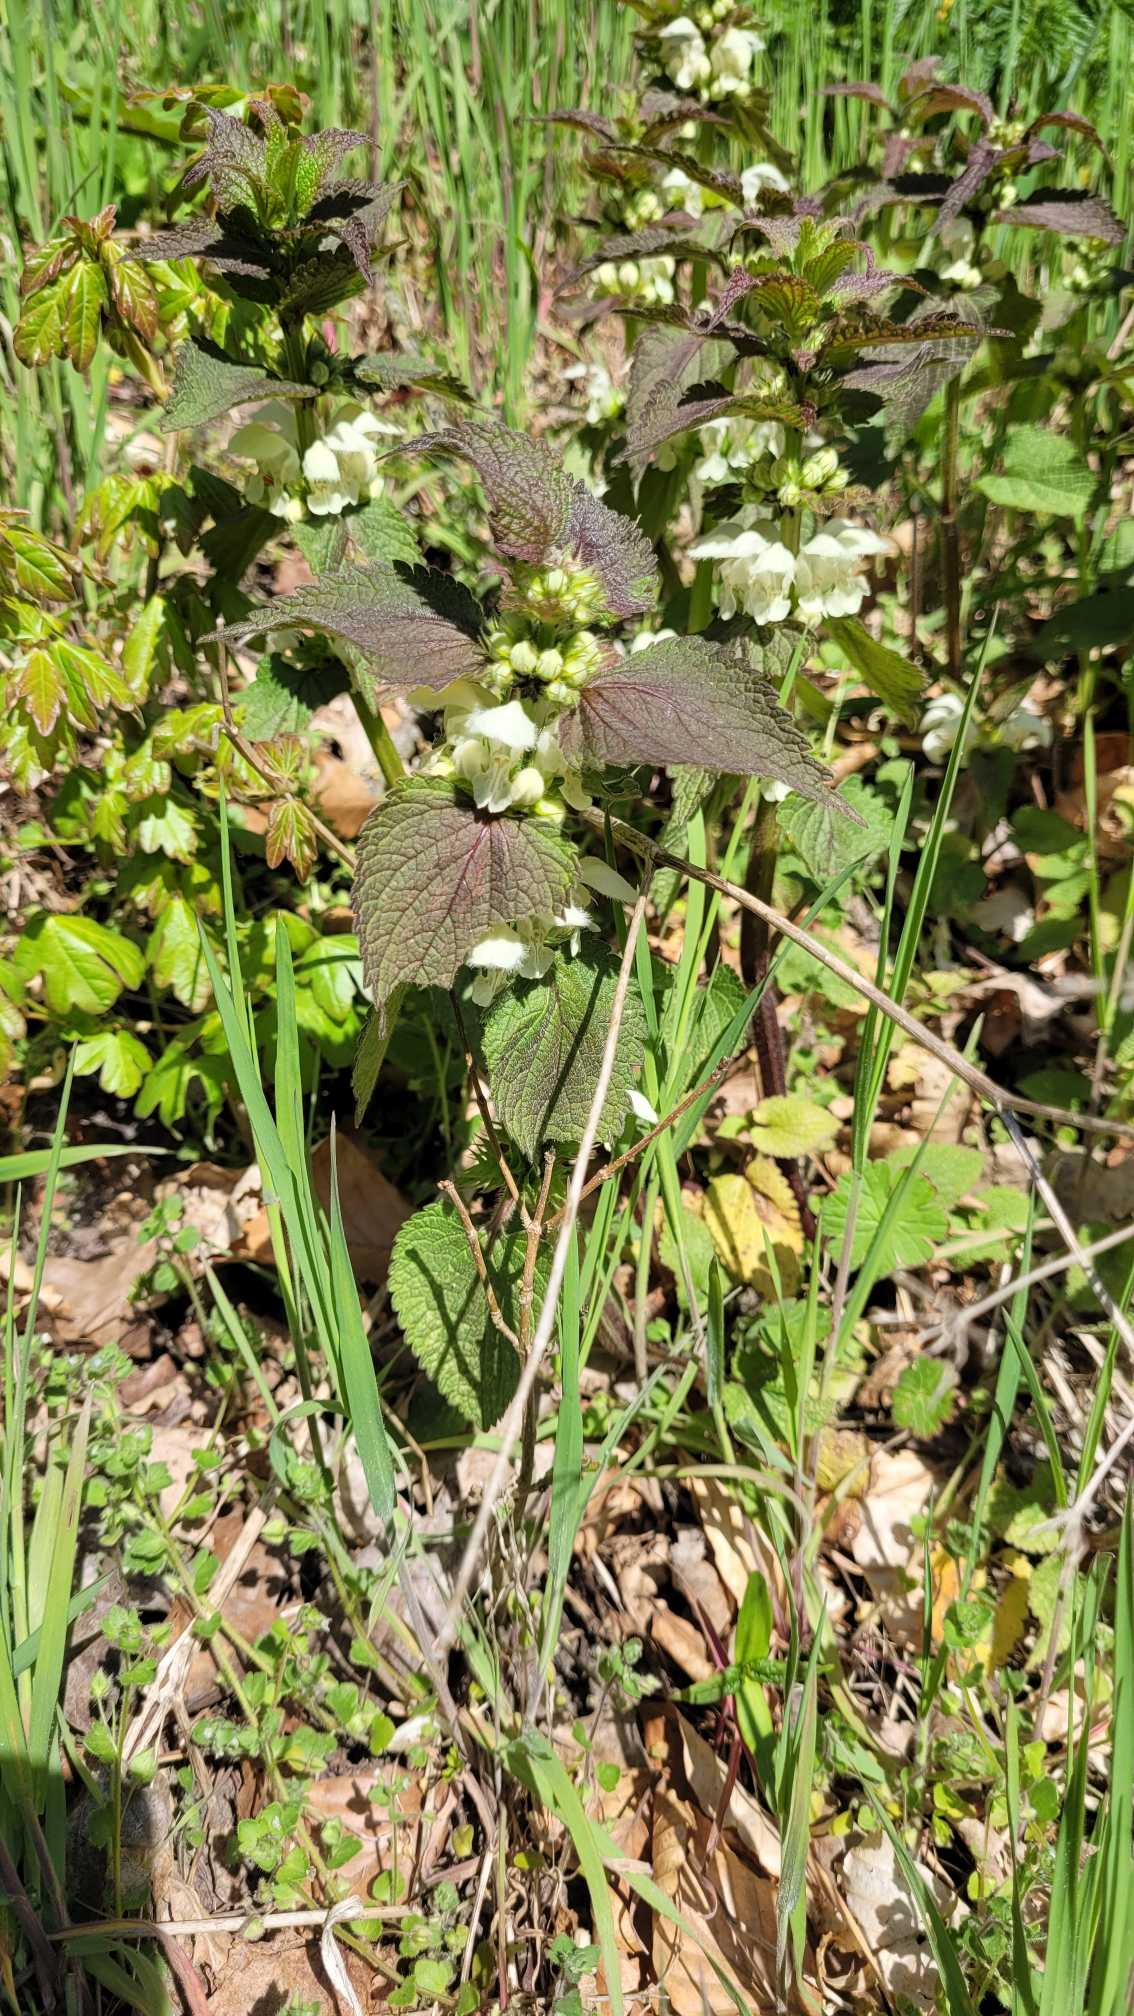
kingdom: Plantae
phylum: Tracheophyta
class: Magnoliopsida
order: Lamiales
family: Lamiaceae
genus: Lamium
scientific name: Lamium album
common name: Døvnælde
